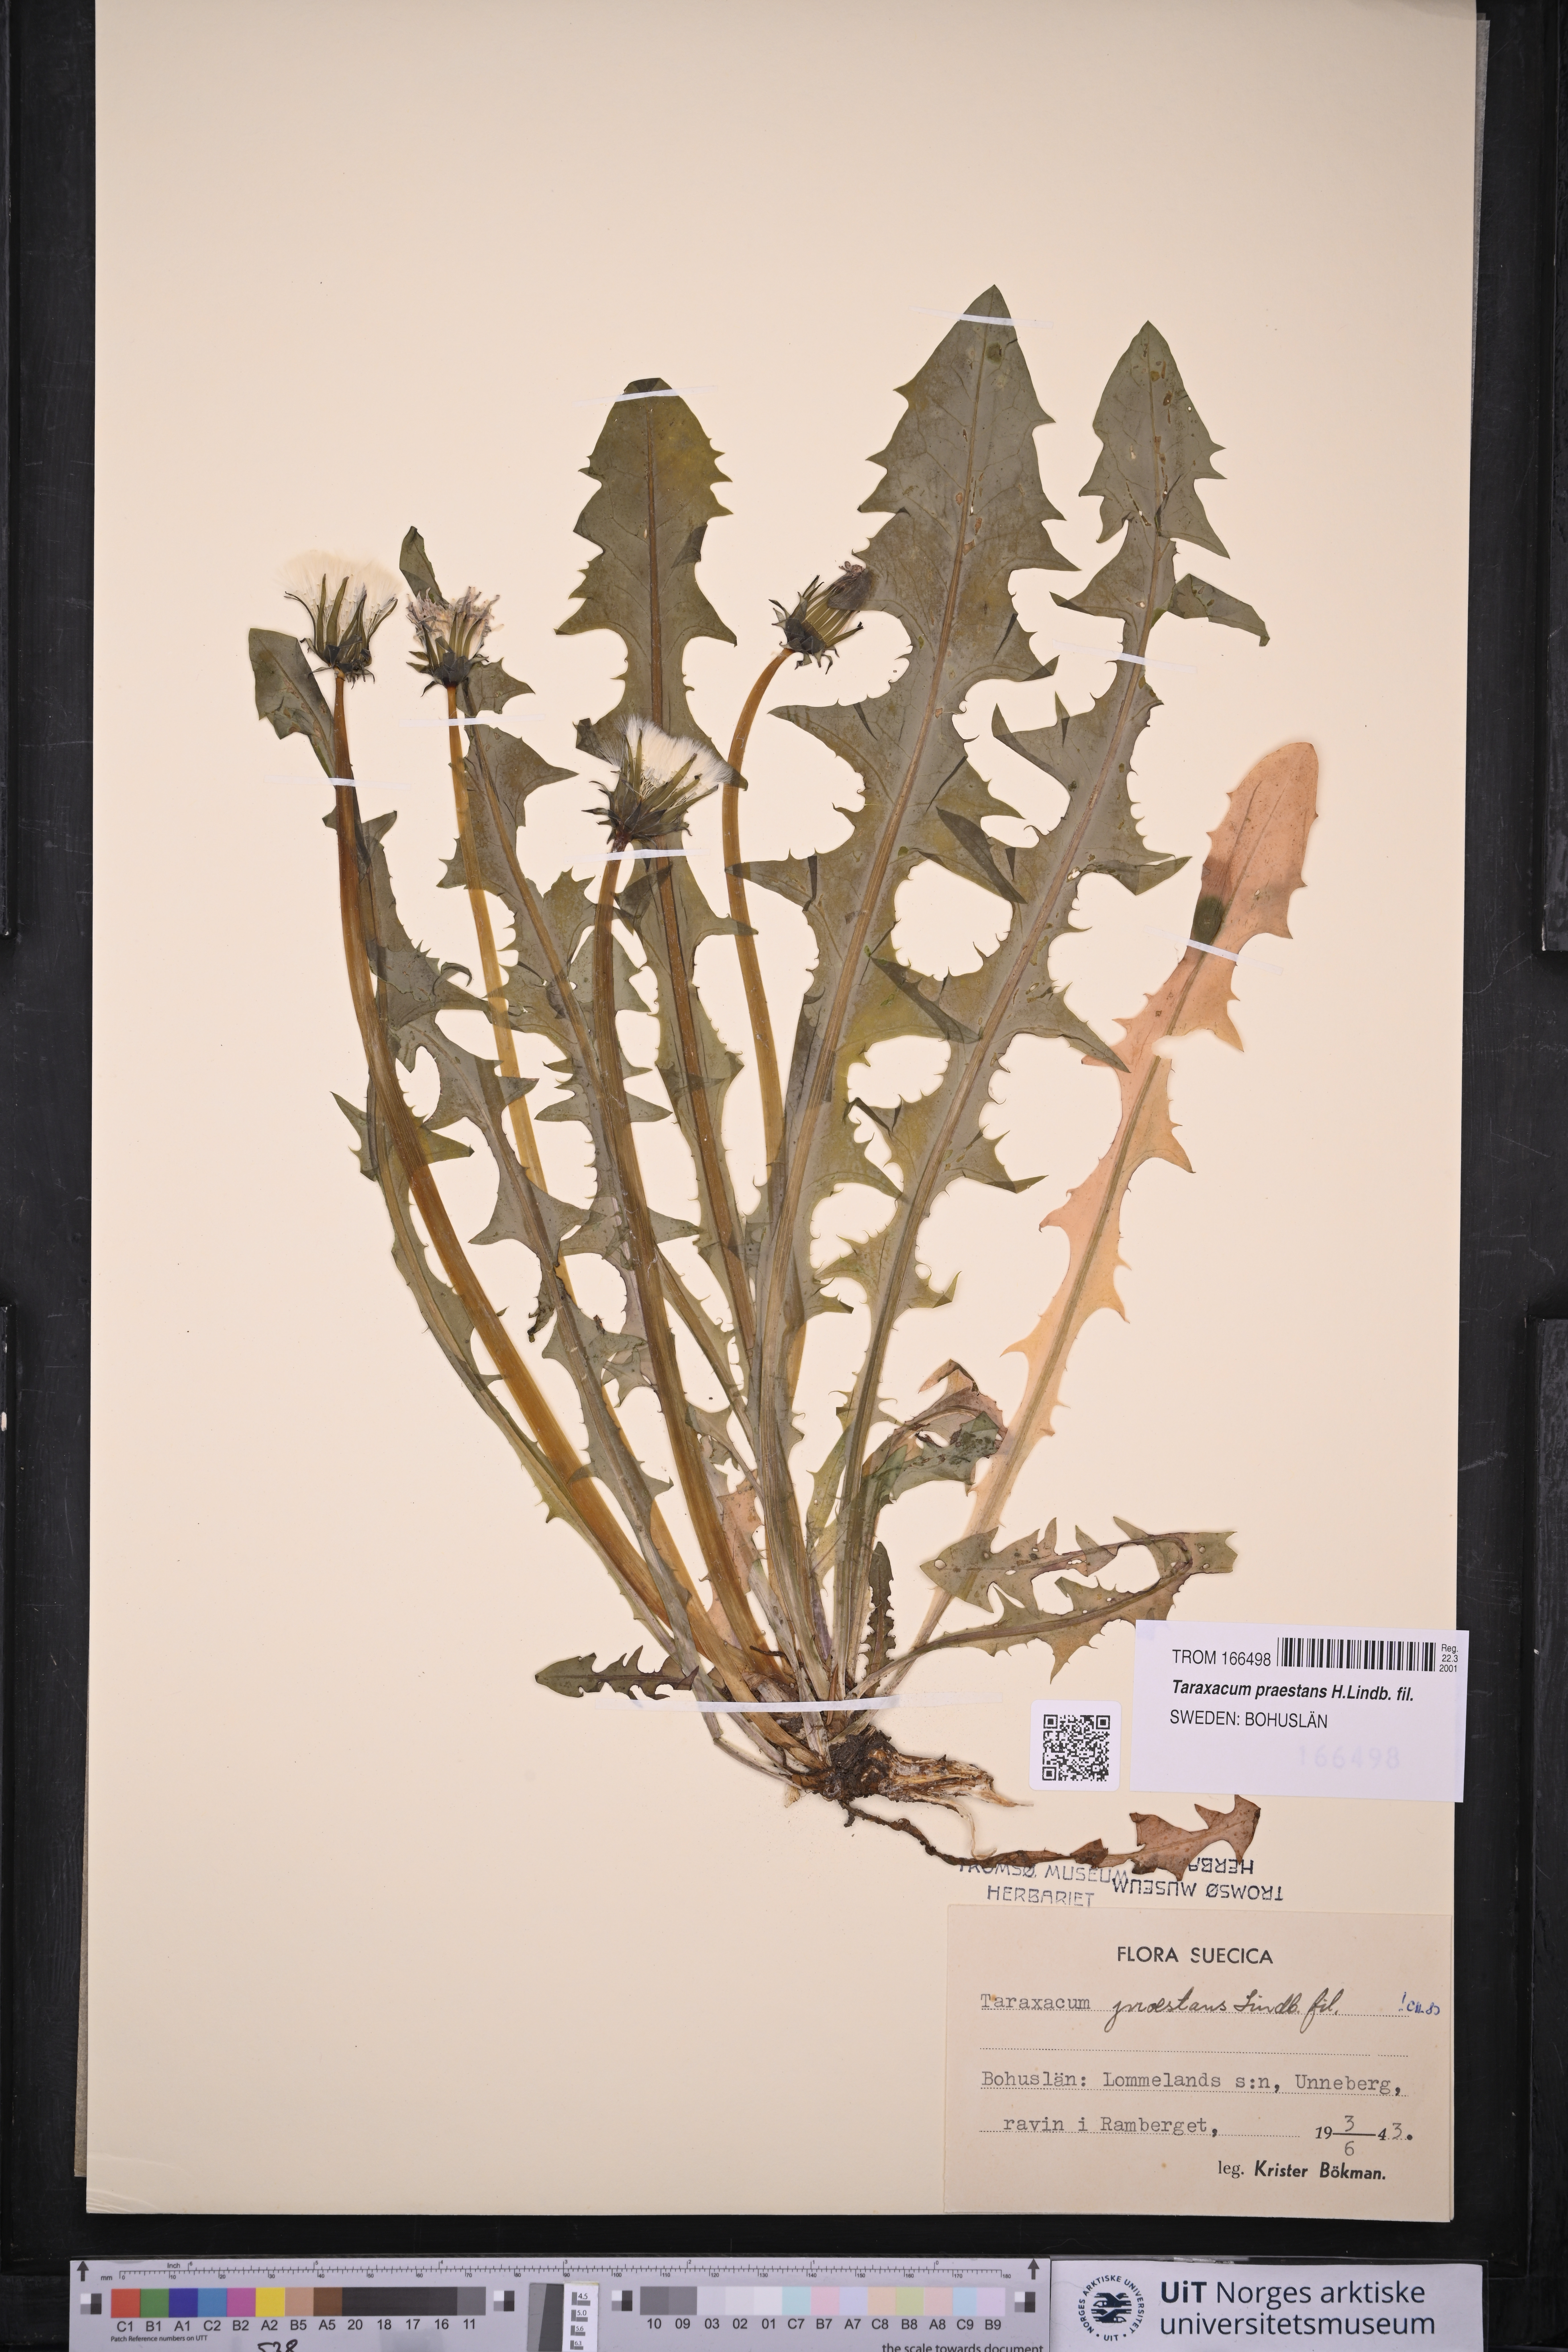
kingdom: Plantae
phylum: Tracheophyta
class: Magnoliopsida
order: Asterales
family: Asteraceae
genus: Taraxacum
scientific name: Taraxacum praestans
